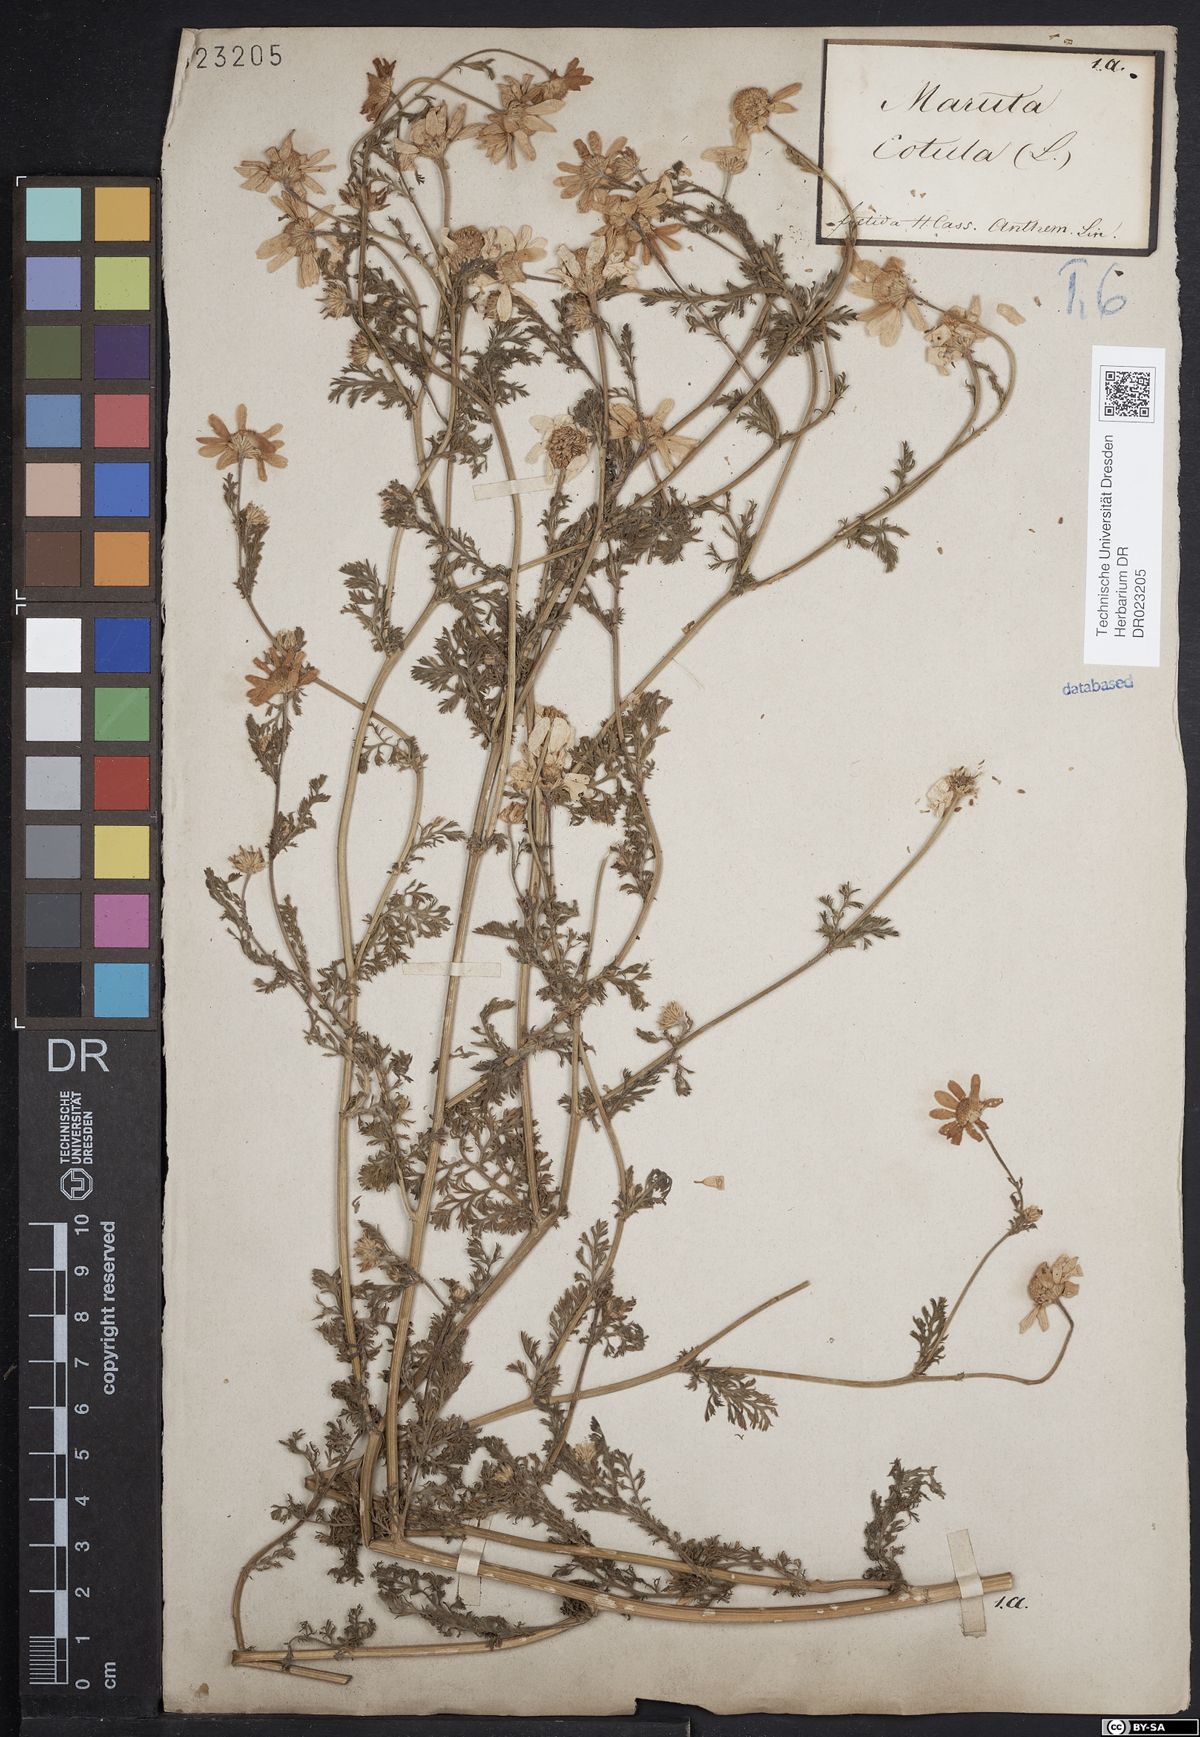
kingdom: Plantae
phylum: Tracheophyta
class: Magnoliopsida
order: Asterales
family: Asteraceae
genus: Anthemis
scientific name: Anthemis cotula
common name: Stinking chamomile
